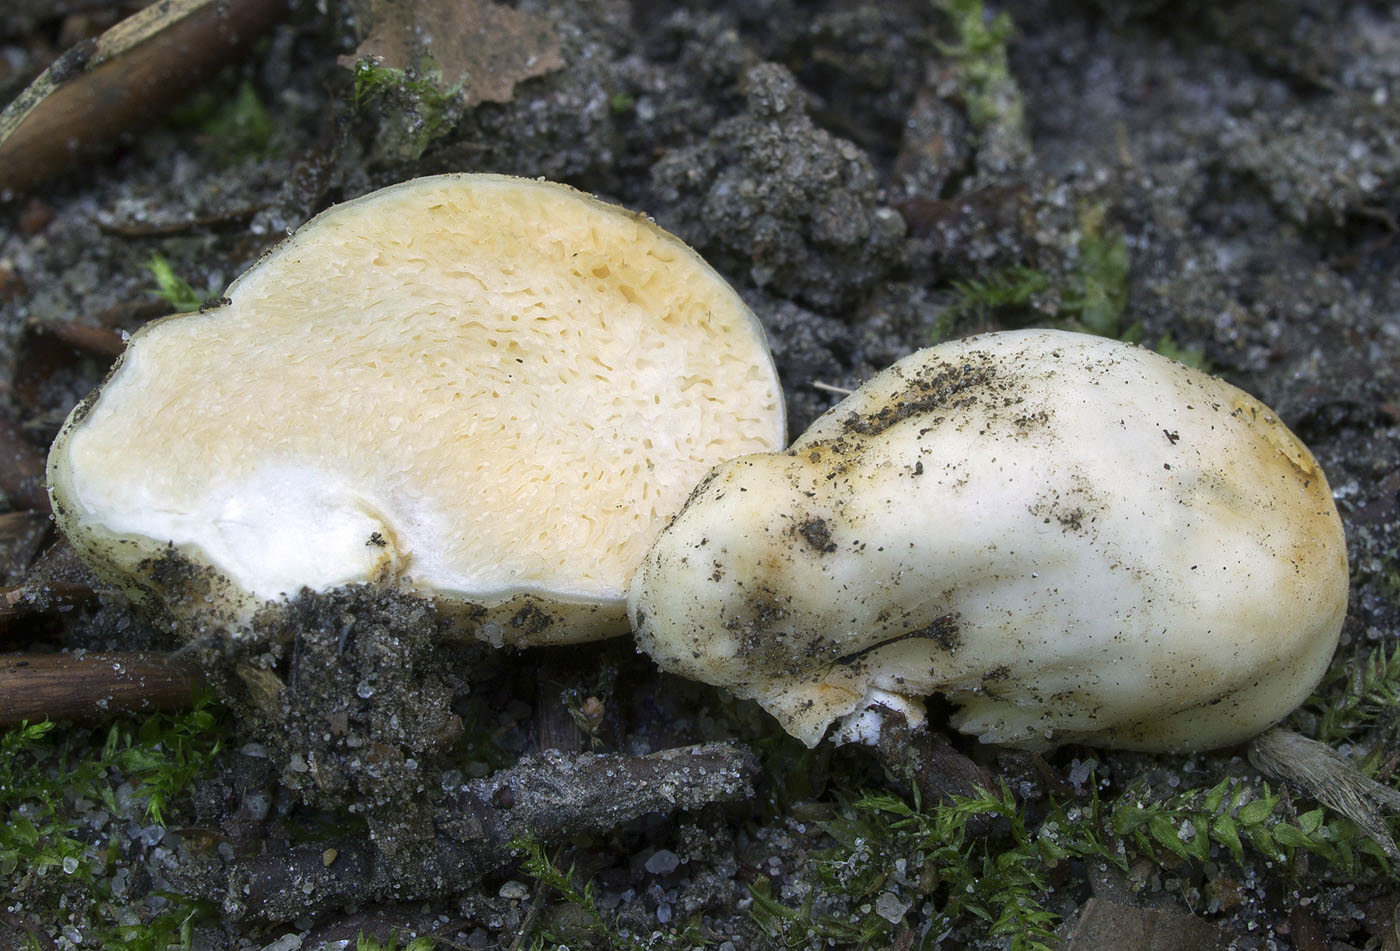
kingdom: Fungi
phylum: Basidiomycota
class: Agaricomycetes
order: Russulales
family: Russulaceae
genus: Russula
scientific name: Russula candida
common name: skørtrøffel
